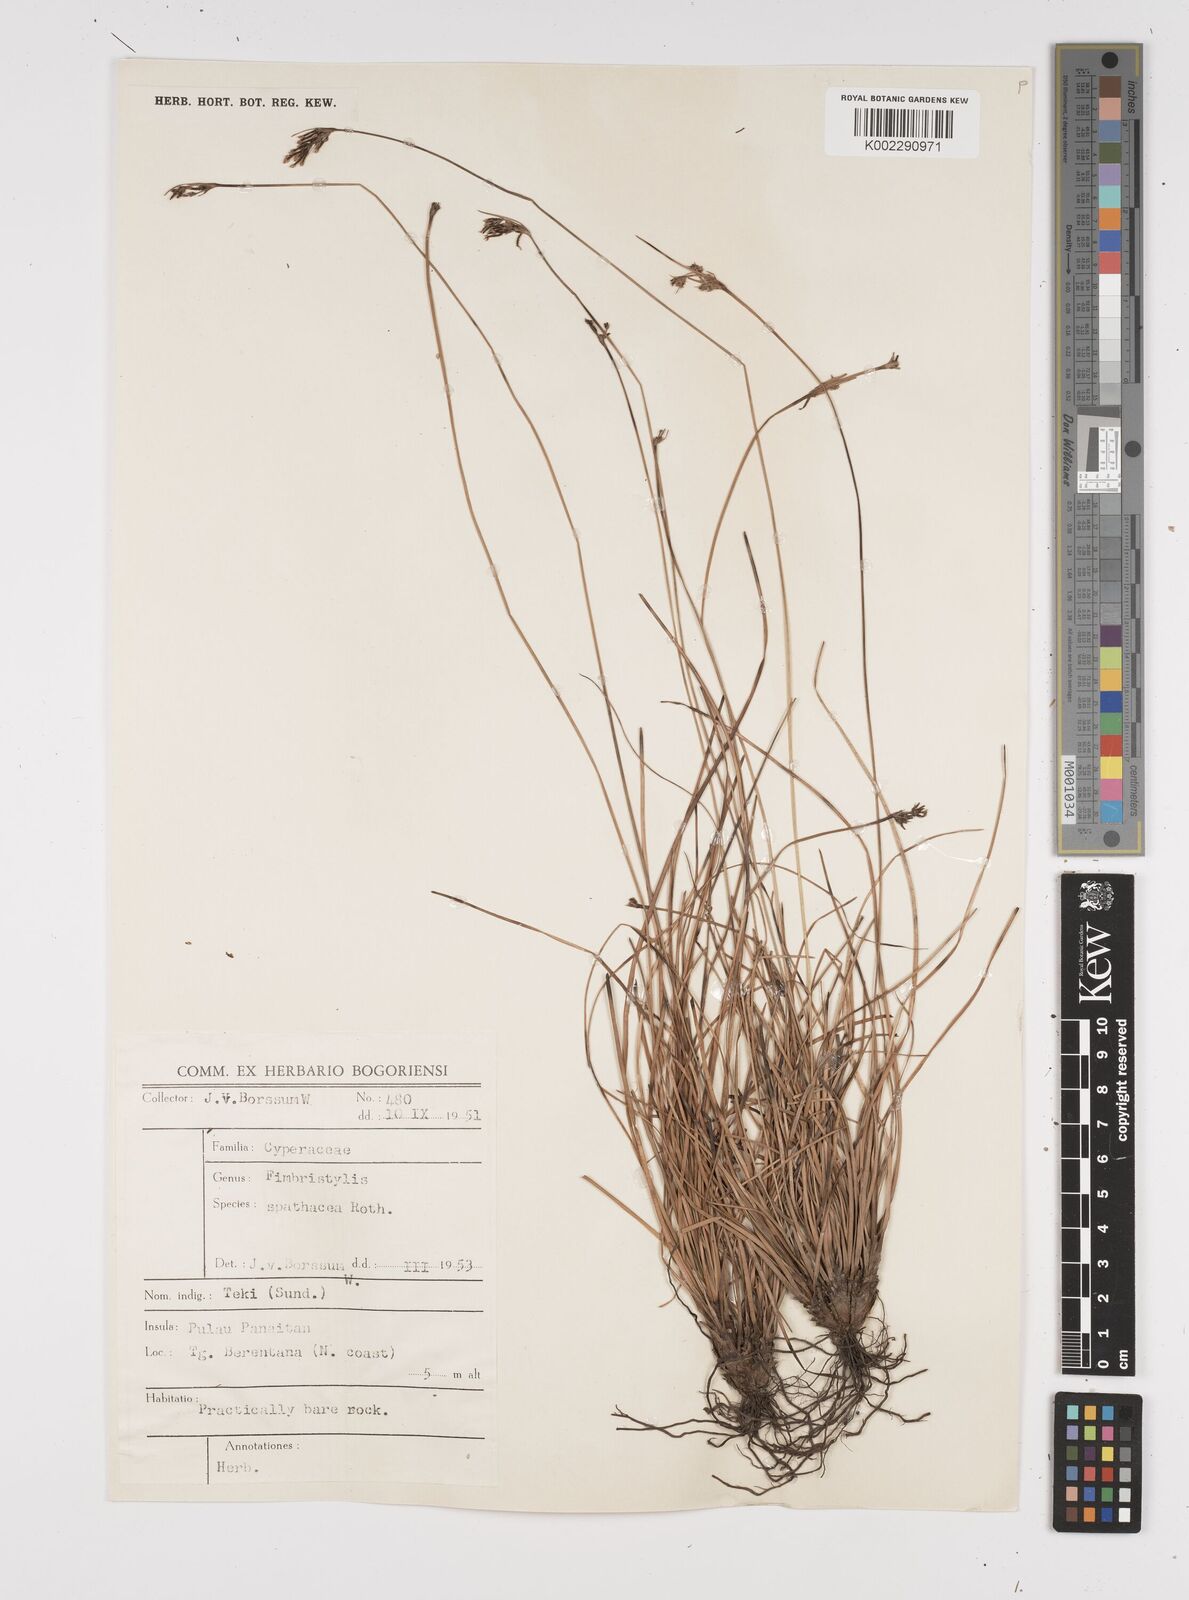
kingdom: Plantae
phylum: Tracheophyta
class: Liliopsida
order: Poales
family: Cyperaceae
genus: Fimbristylis
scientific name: Fimbristylis cymosa
